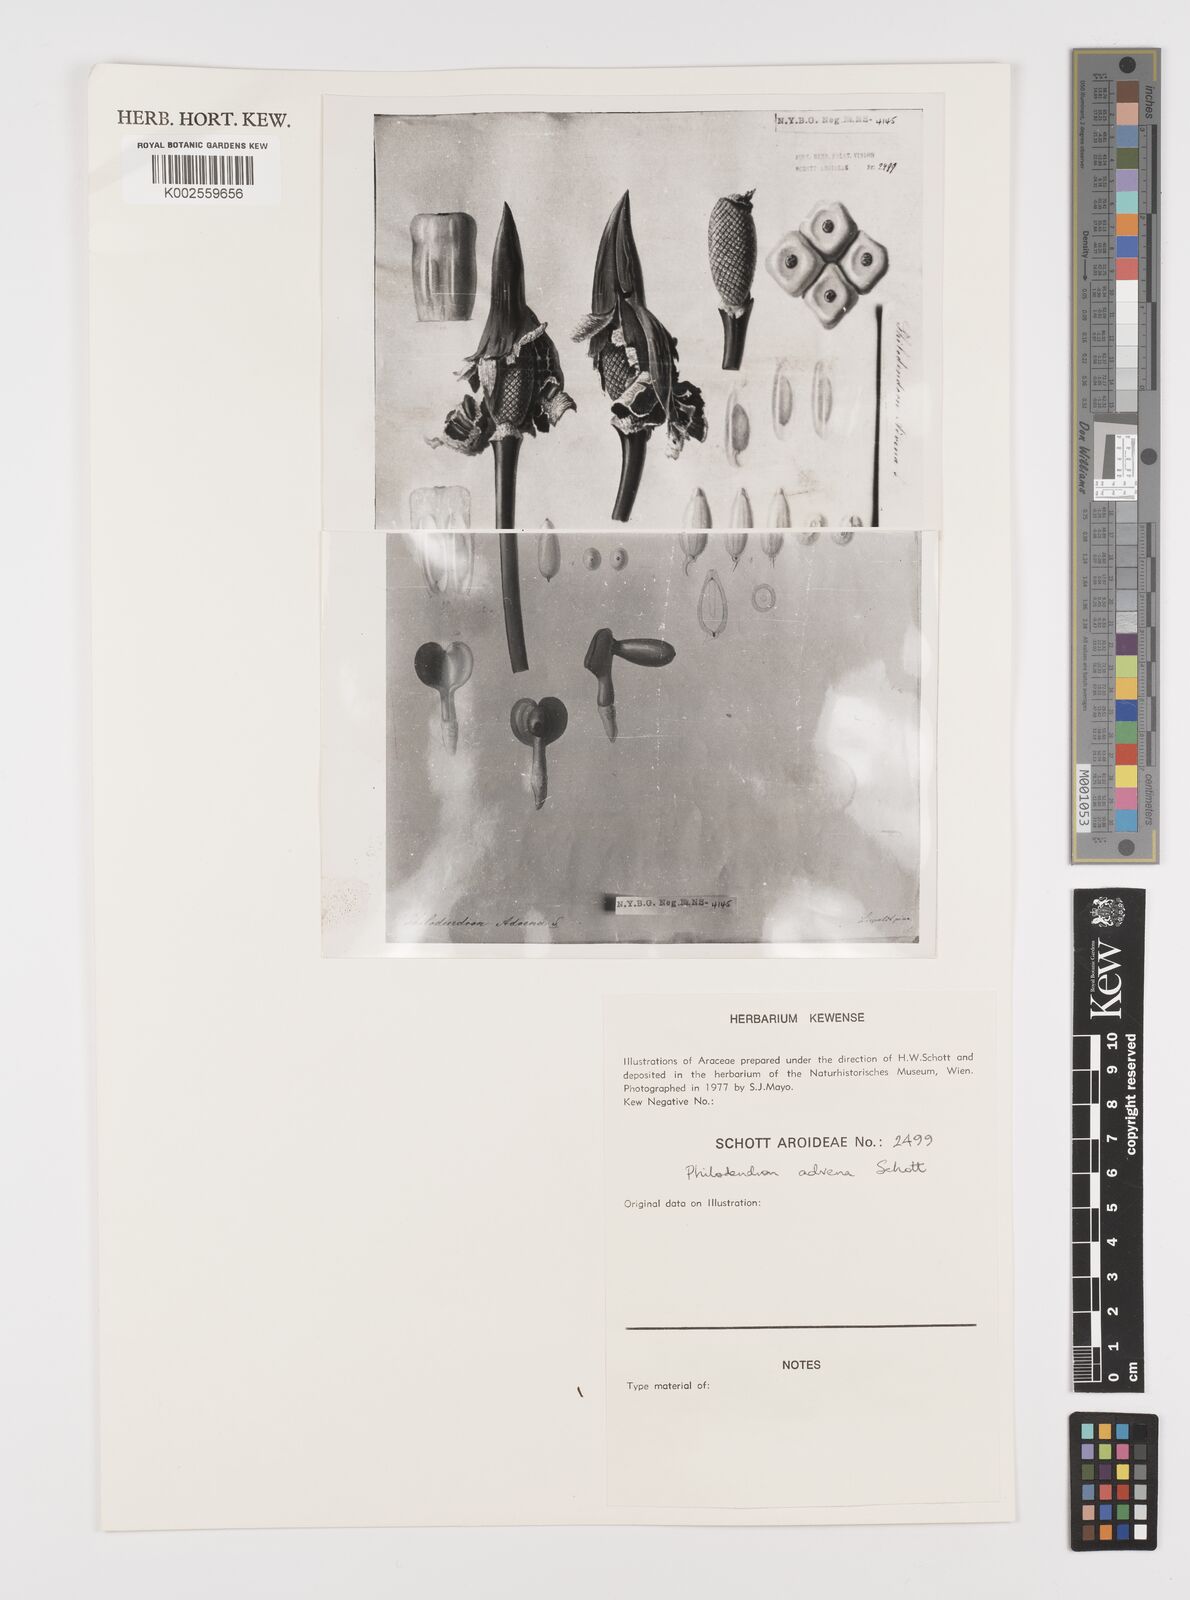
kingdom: Plantae
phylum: Tracheophyta
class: Liliopsida
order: Alismatales
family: Araceae
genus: Philodendron
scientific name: Philodendron advena
